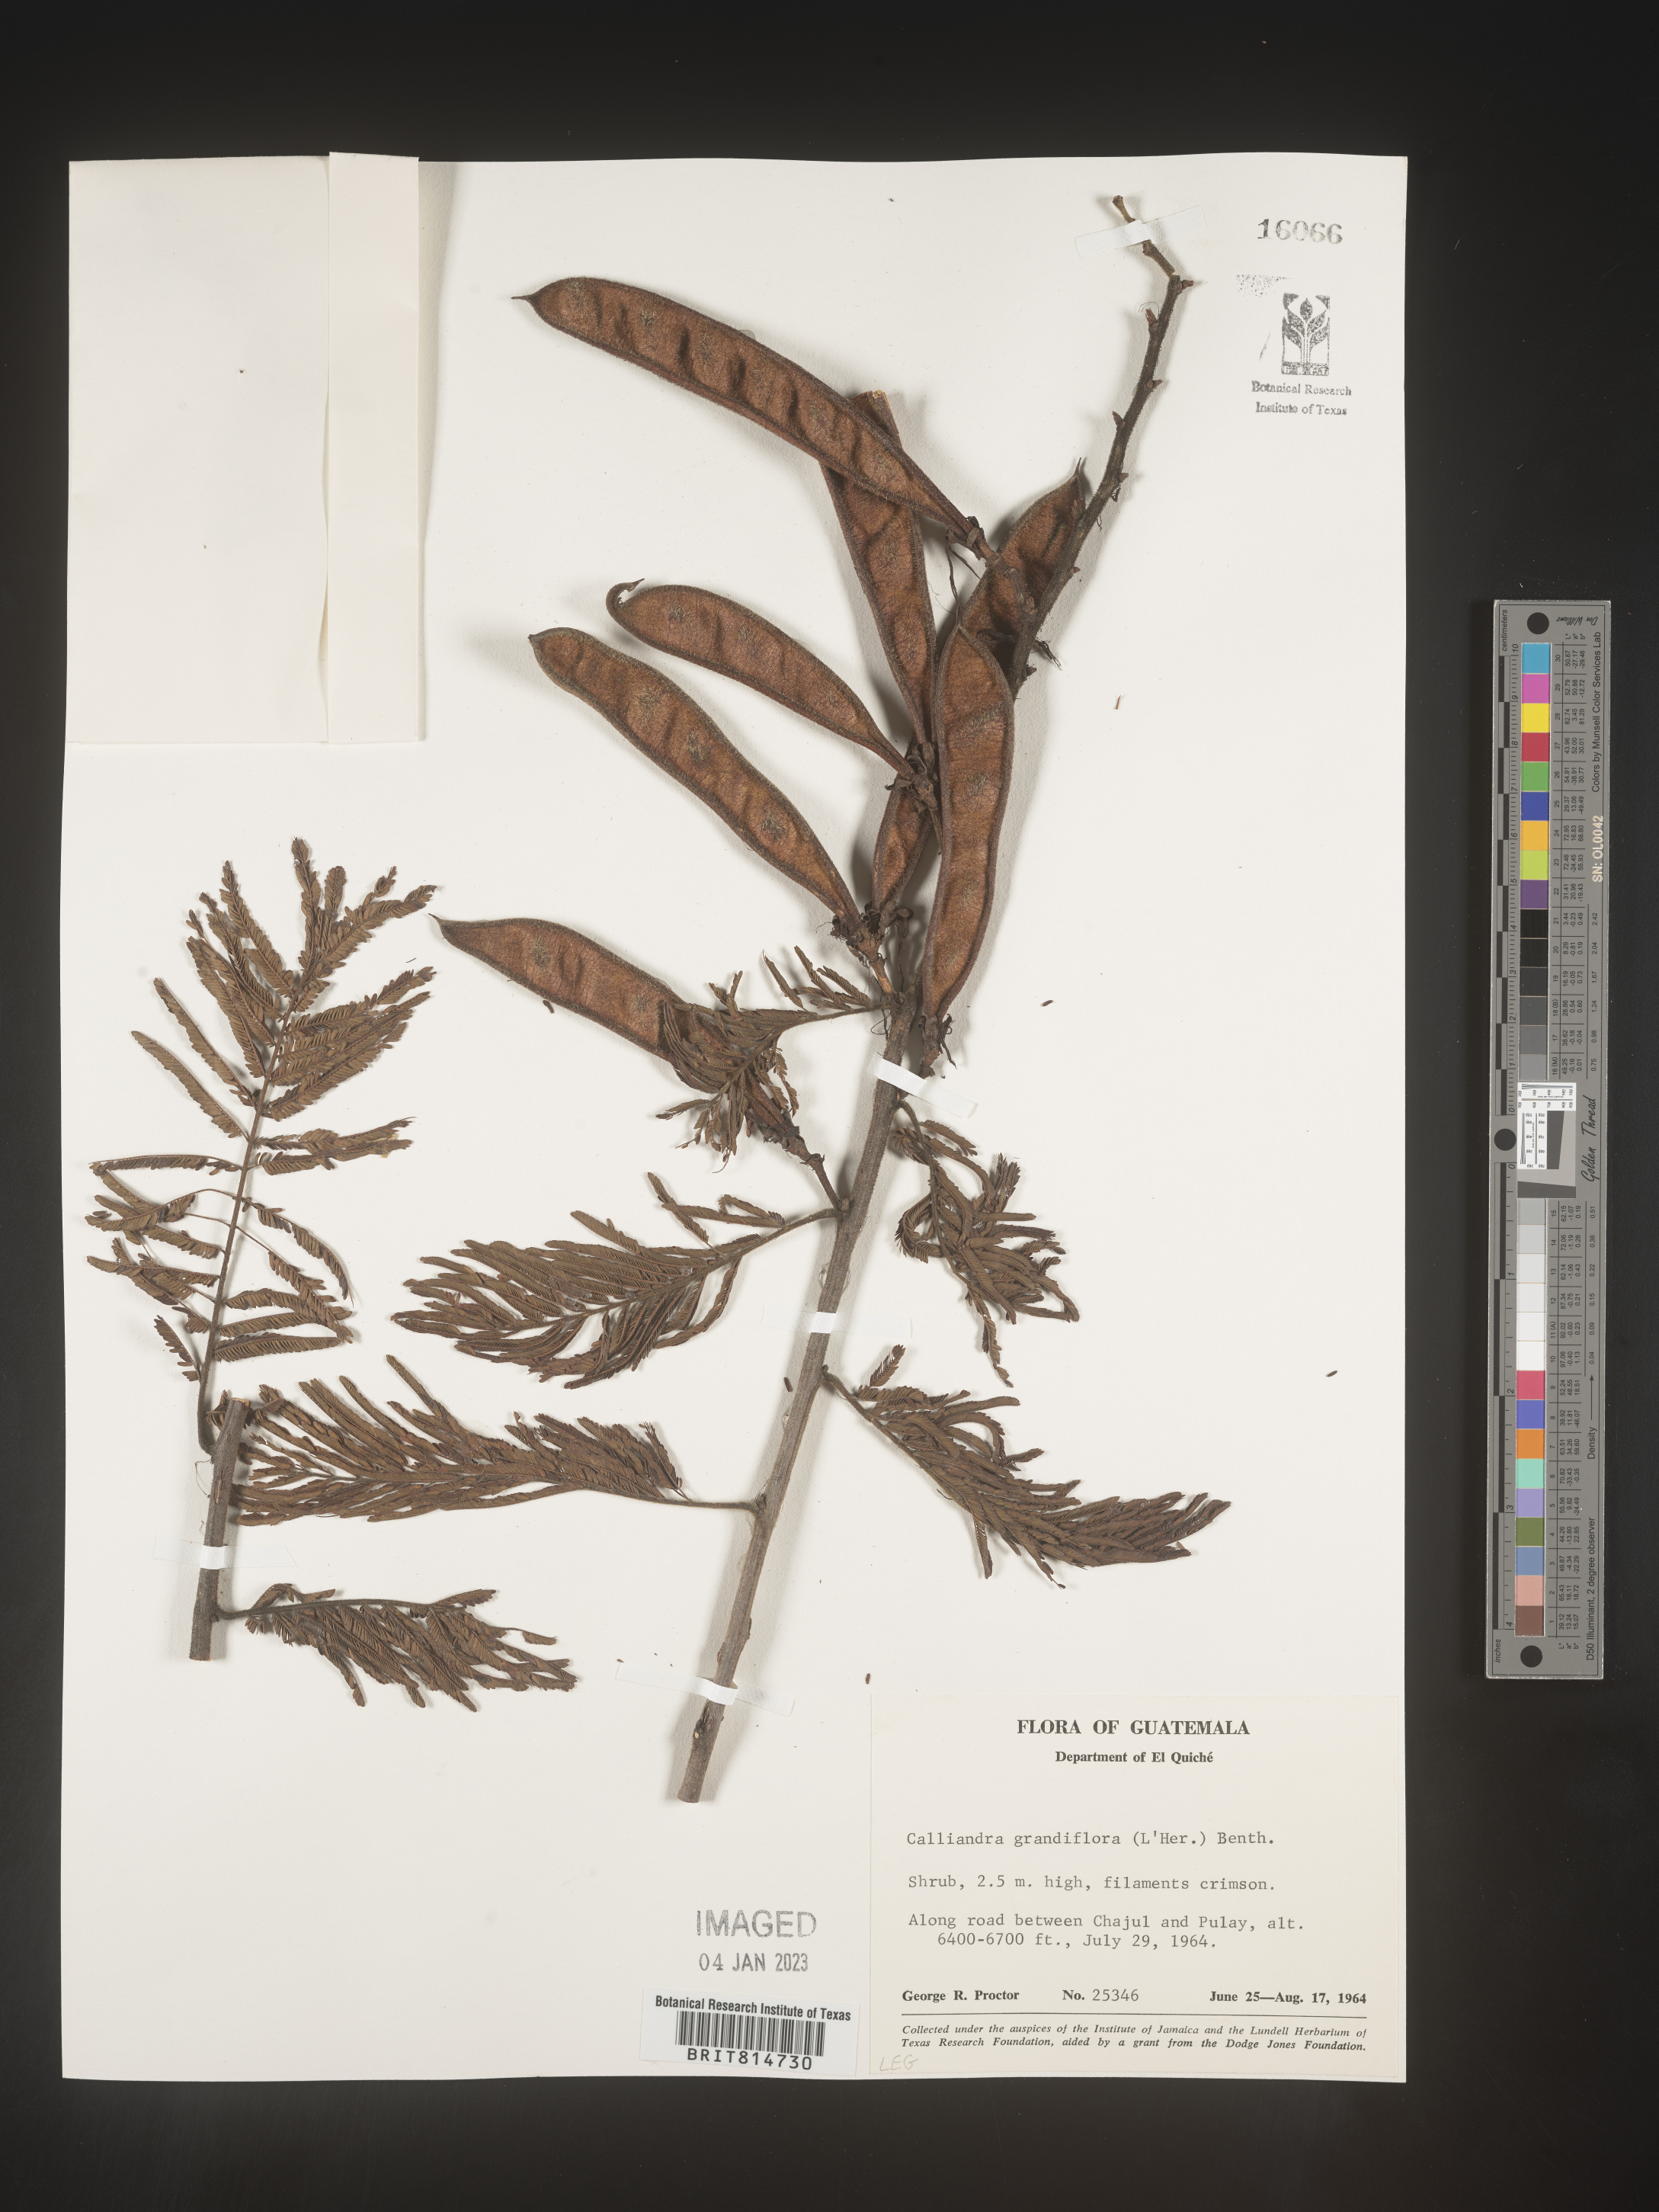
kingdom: Plantae
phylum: Tracheophyta
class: Magnoliopsida
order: Fabales
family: Fabaceae
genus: Calliandra
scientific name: Calliandra
